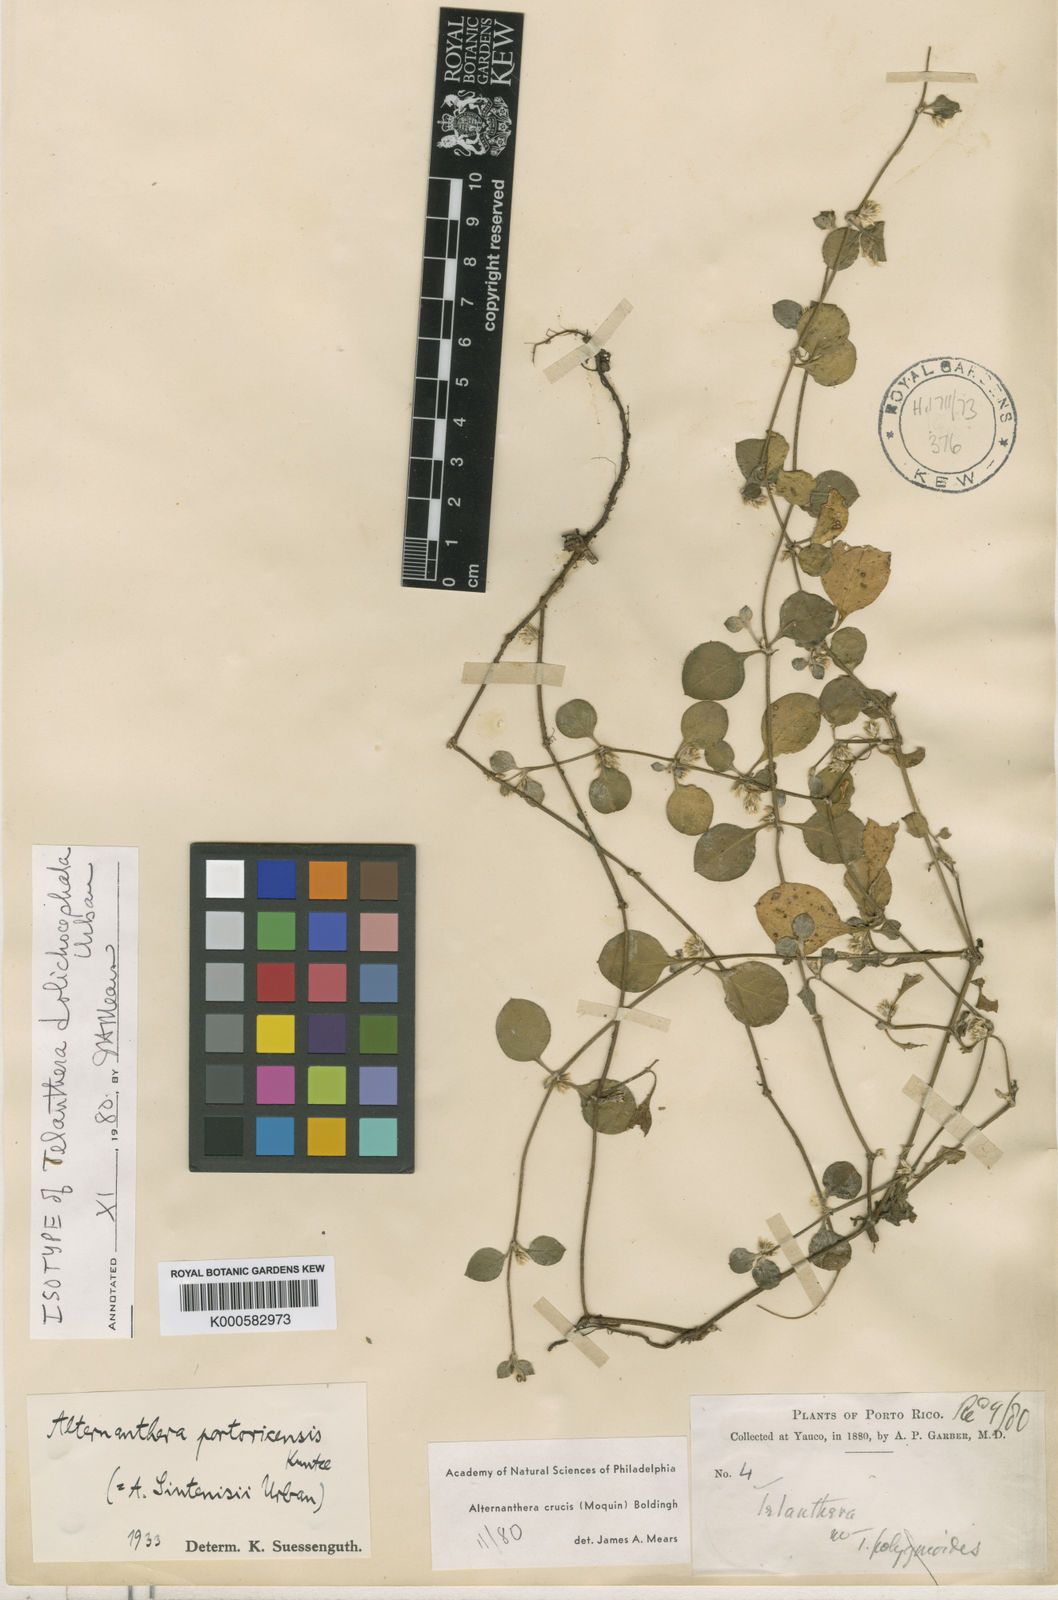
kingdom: Plantae
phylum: Tracheophyta
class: Magnoliopsida
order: Caryophyllales
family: Amaranthaceae
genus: Alternanthera
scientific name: Alternanthera crucis
